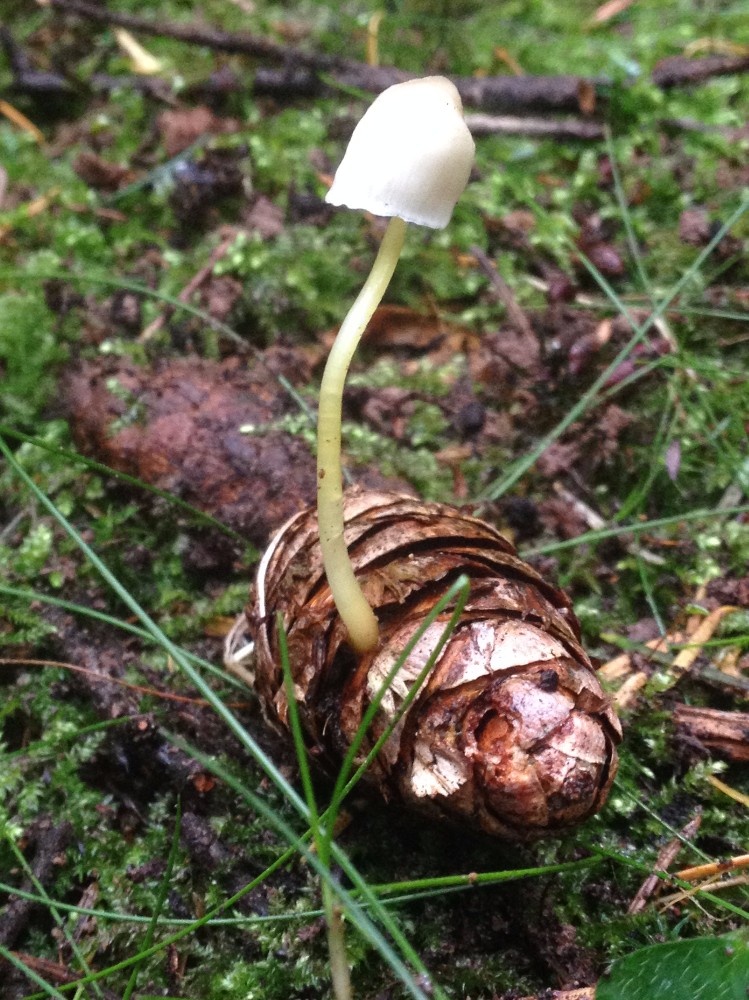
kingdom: Fungi
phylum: Basidiomycota
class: Agaricomycetes
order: Agaricales
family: Mycenaceae
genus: Mycena
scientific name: Mycena epipterygia
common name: gulstokket huesvamp
